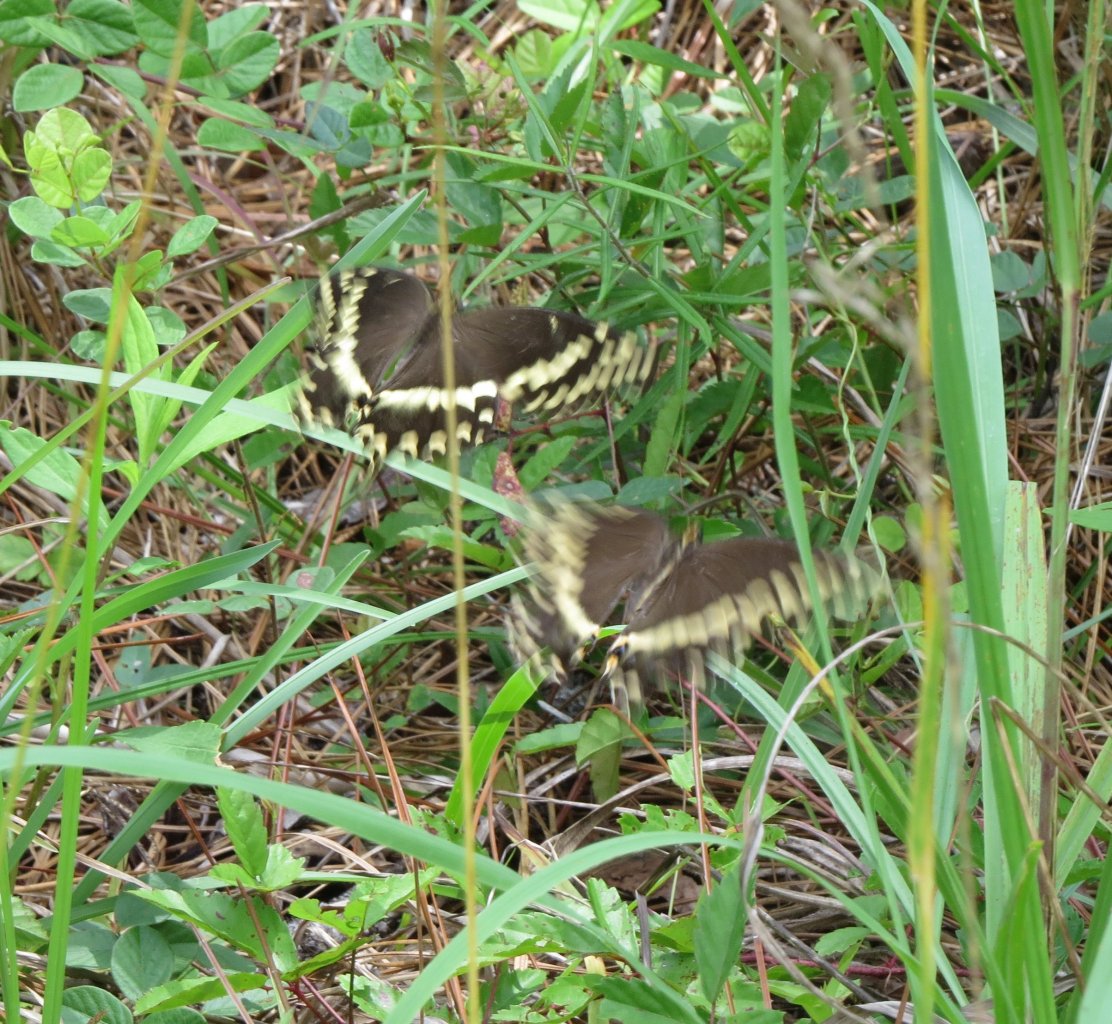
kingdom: Animalia
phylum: Arthropoda
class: Insecta
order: Lepidoptera
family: Papilionidae
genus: Pterourus
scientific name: Pterourus palamedes
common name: Palamedes Swallowtail
